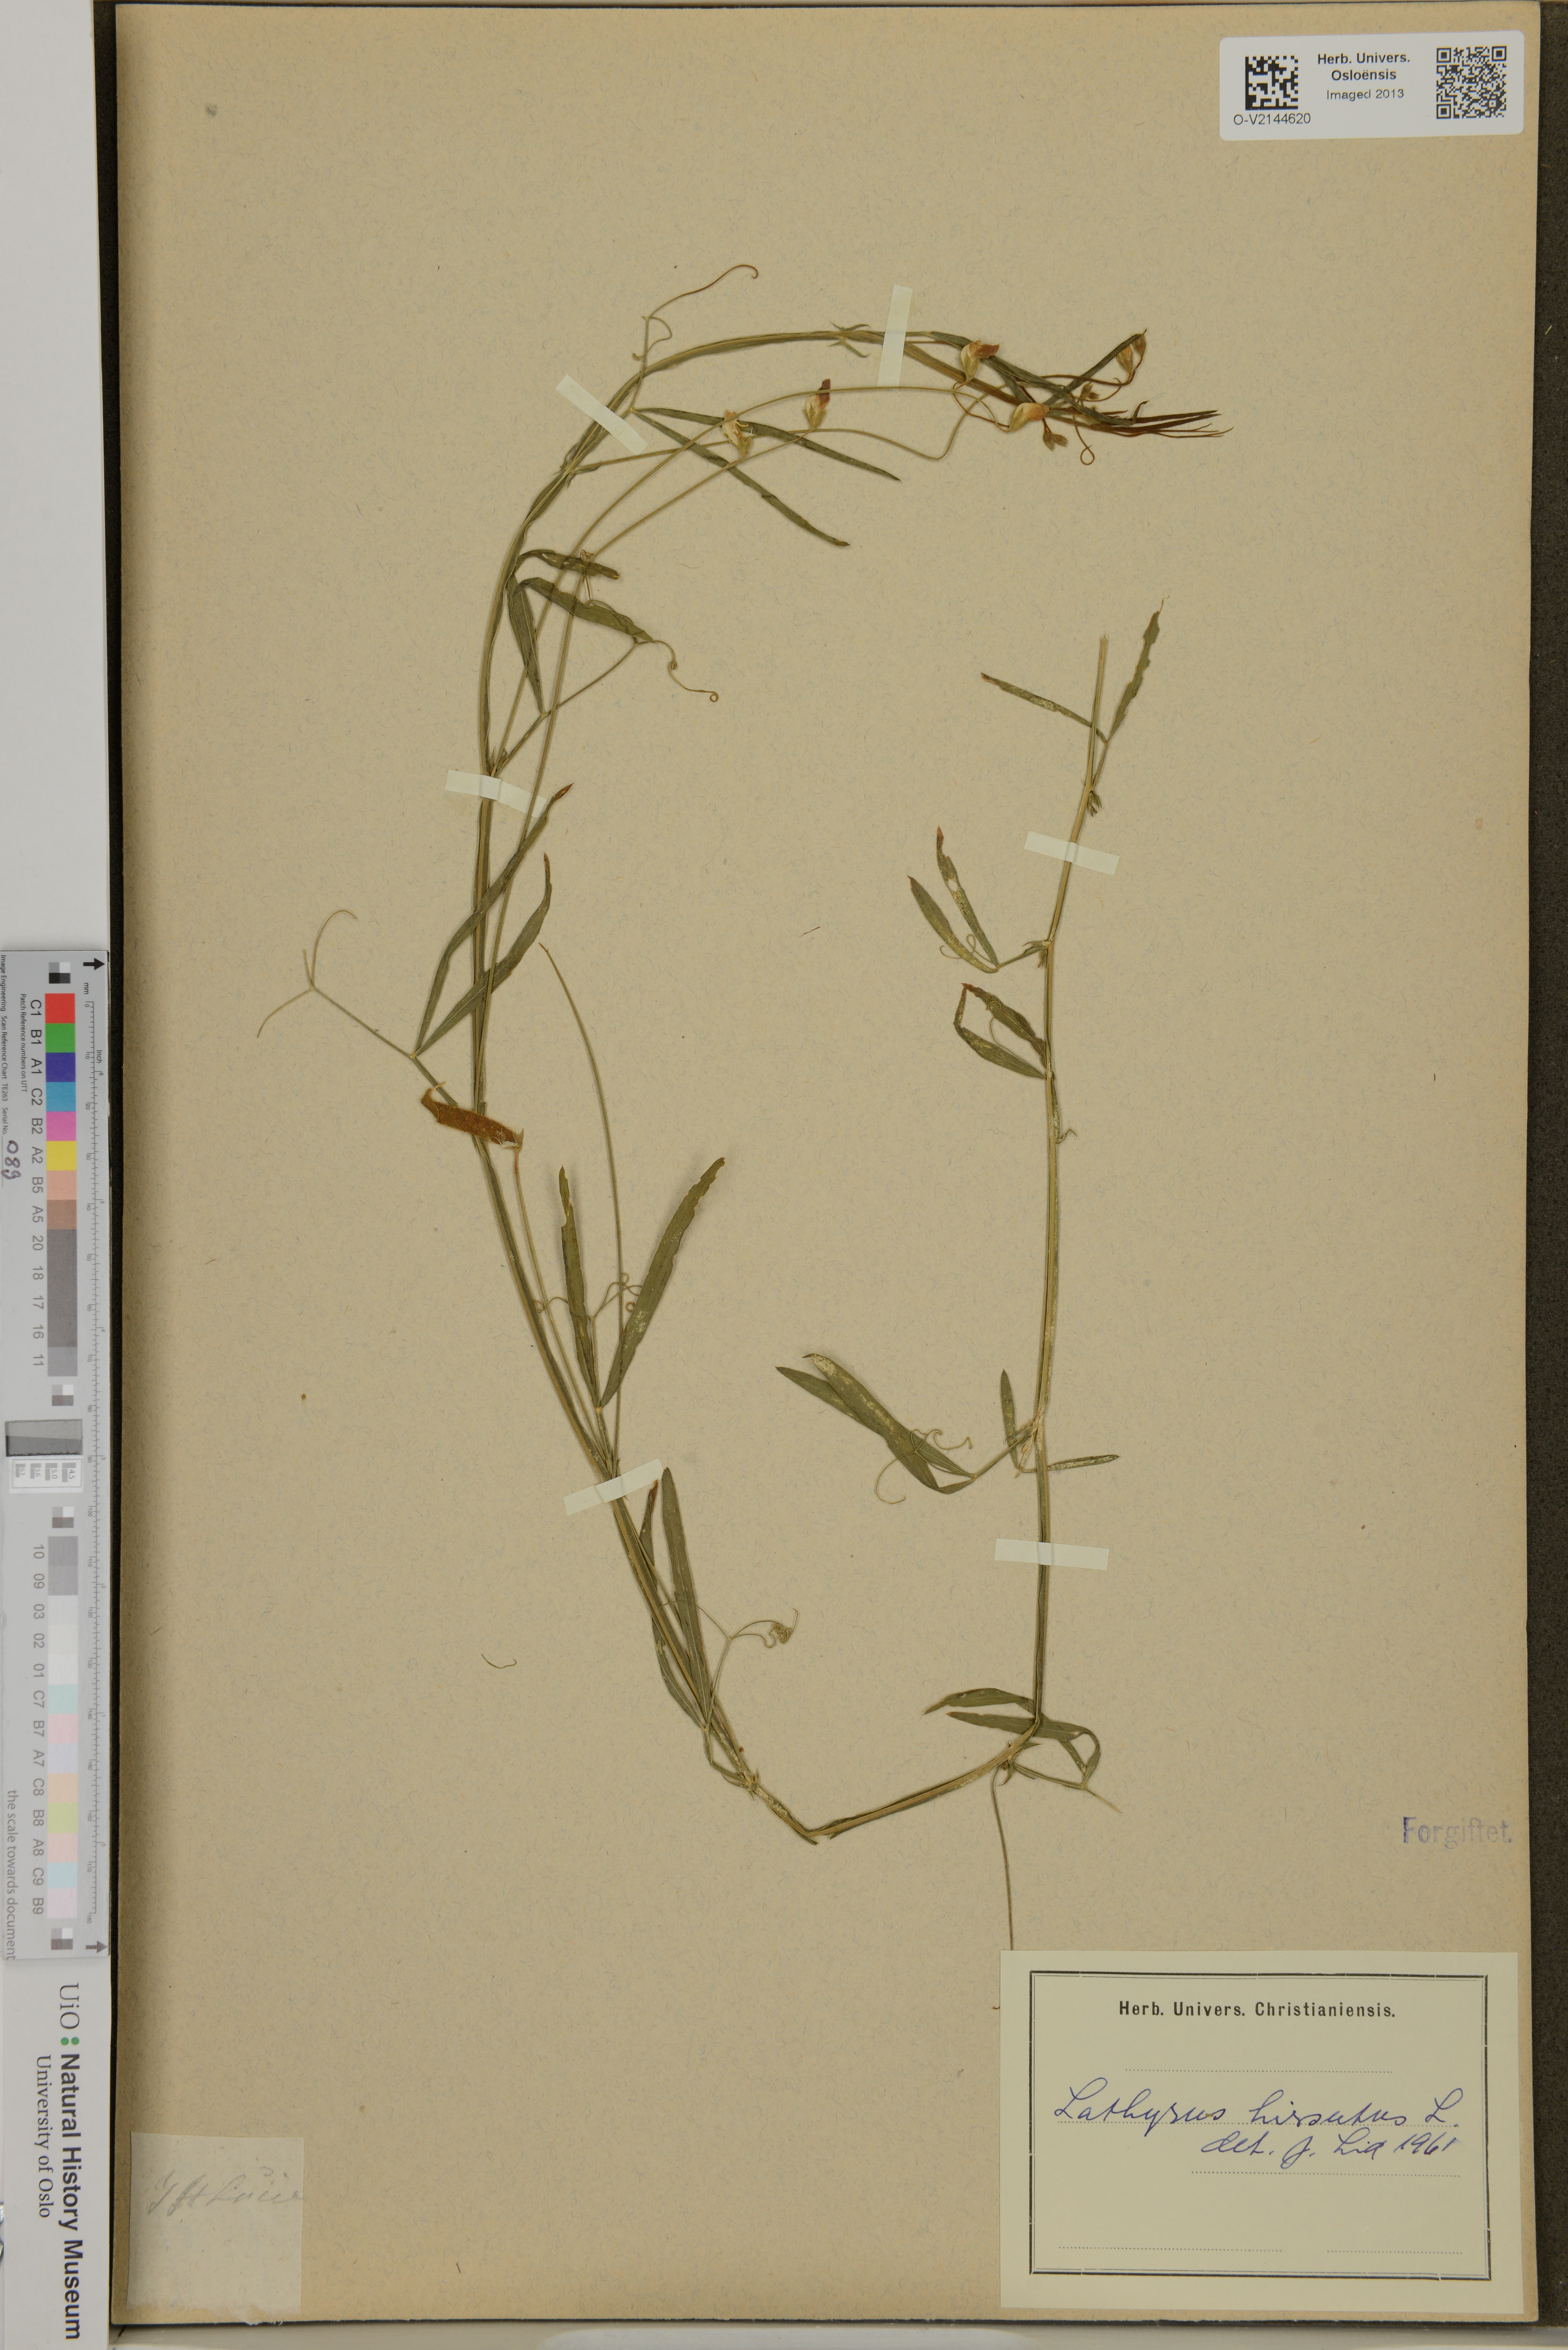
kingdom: Plantae
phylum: Tracheophyta
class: Magnoliopsida
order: Fabales
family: Fabaceae
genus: Lathyrus
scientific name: Lathyrus hirsutus
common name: Hairy vetchling
